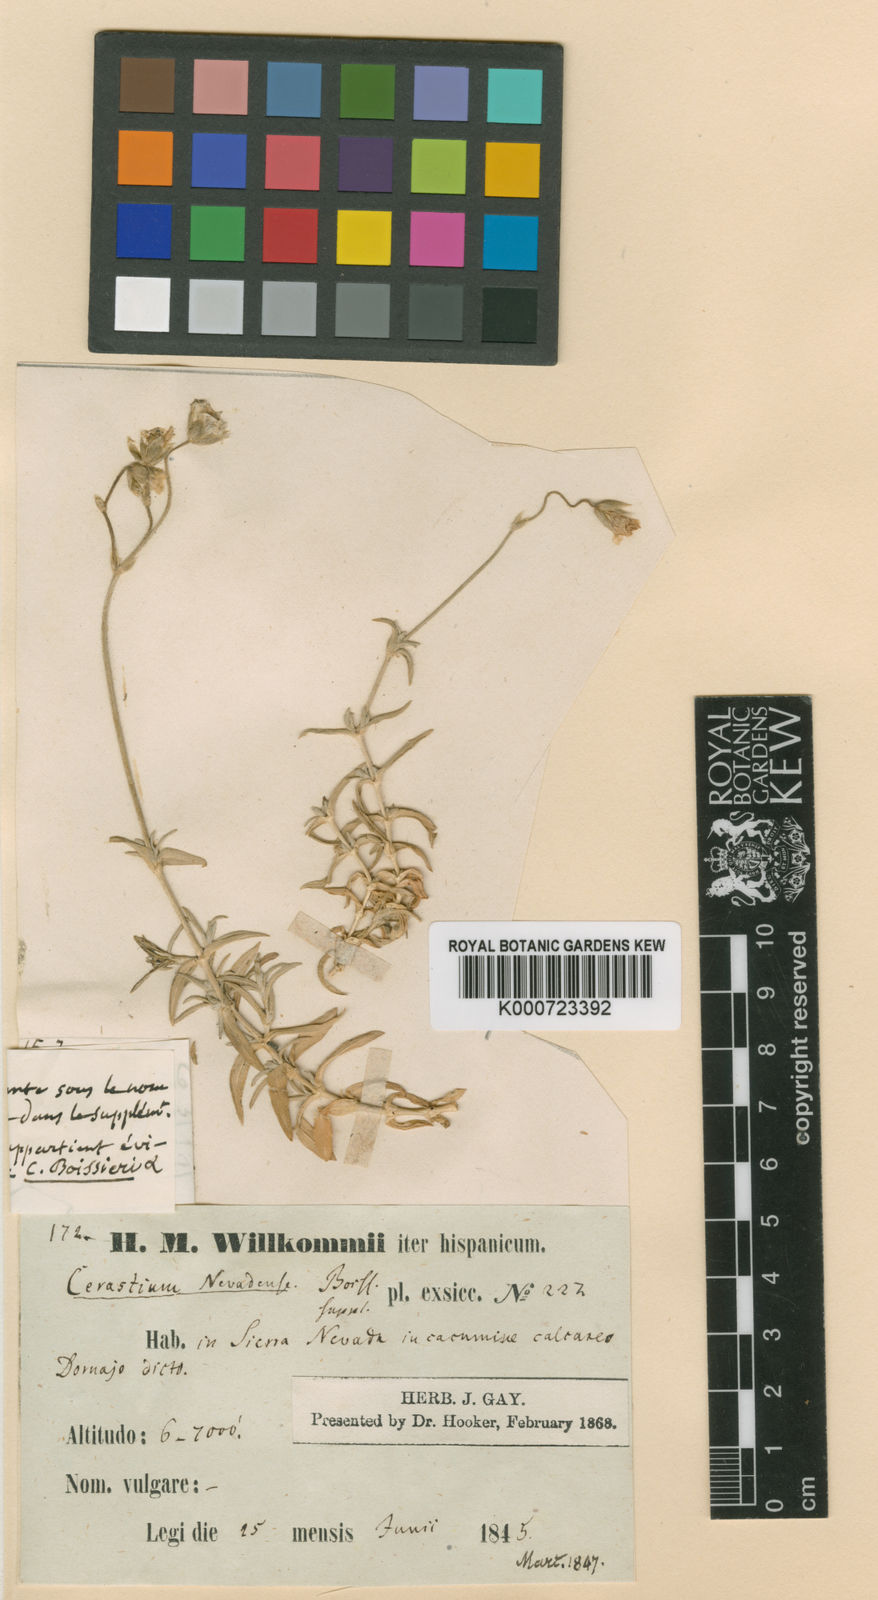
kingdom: Plantae
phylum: Tracheophyta
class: Magnoliopsida
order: Caryophyllales
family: Caryophyllaceae
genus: Cerastium
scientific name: Cerastium gibraltaricum
